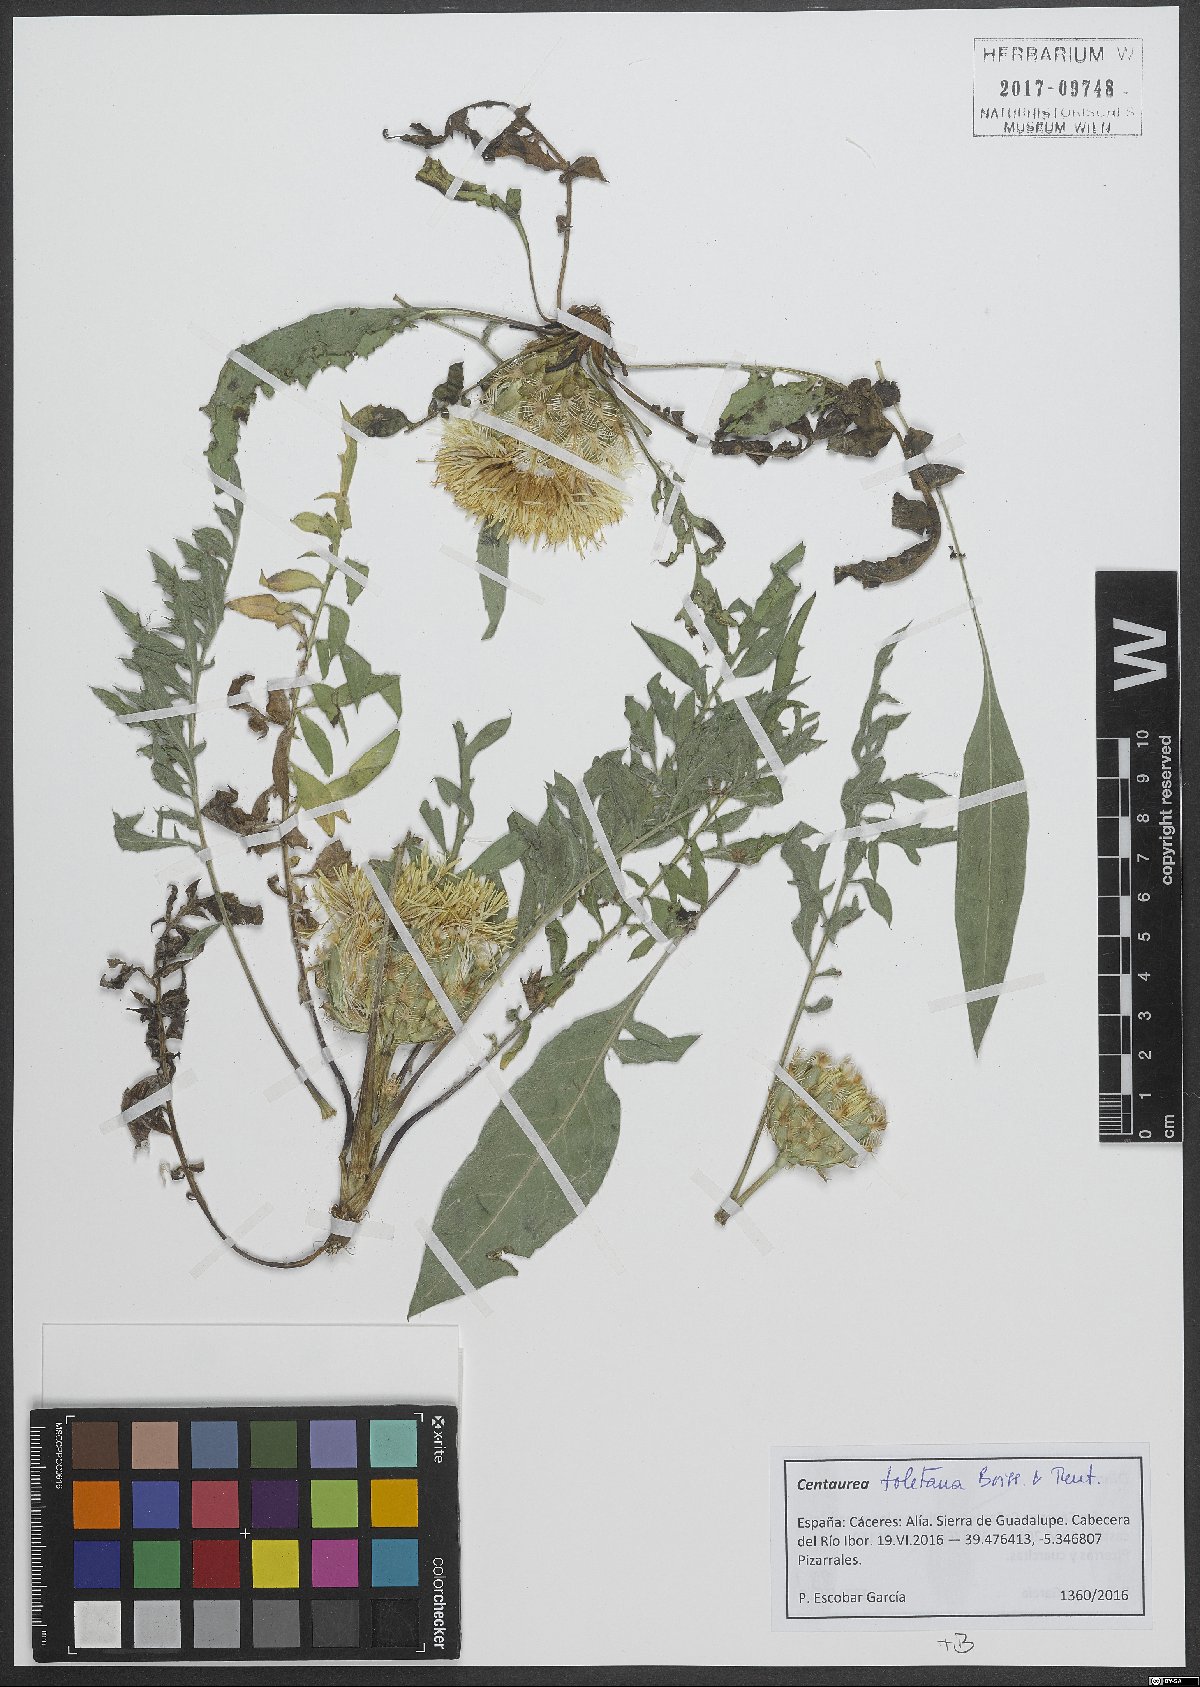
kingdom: Plantae
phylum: Tracheophyta
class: Magnoliopsida
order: Asterales
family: Asteraceae
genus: Centaurea
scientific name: Centaurea toletana
